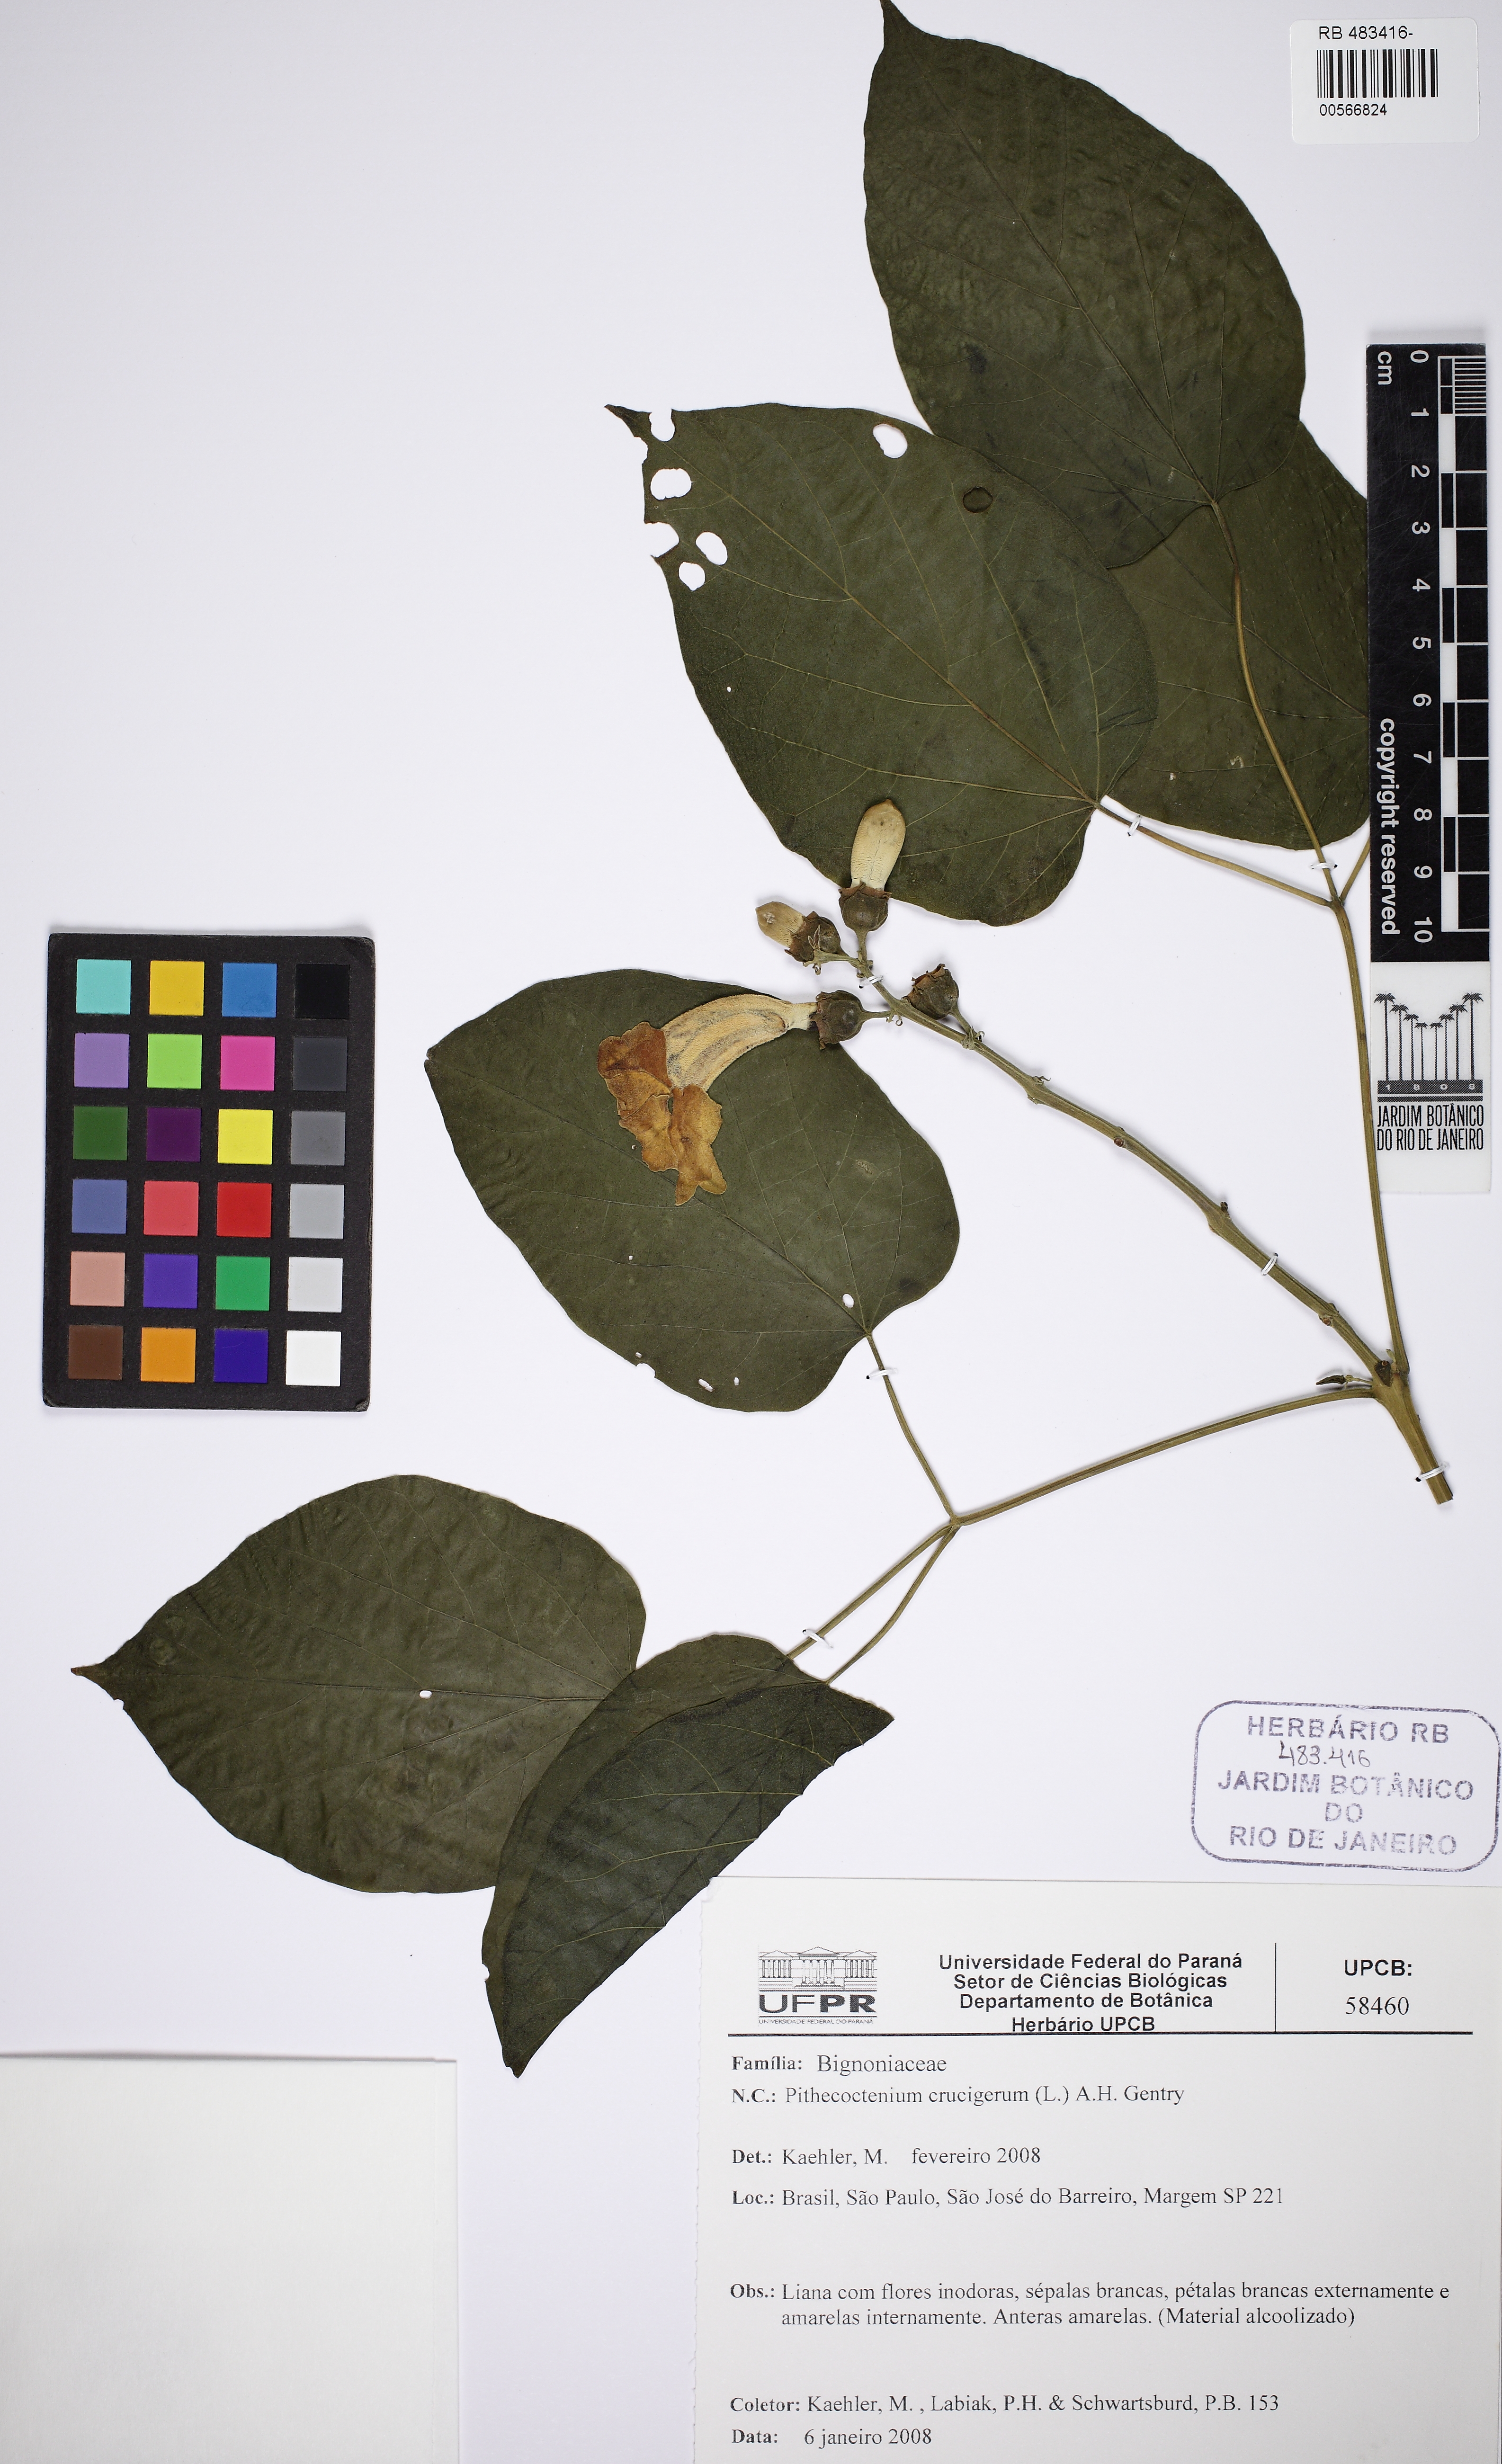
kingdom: Plantae
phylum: Tracheophyta
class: Magnoliopsida
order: Lamiales
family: Bignoniaceae
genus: Amphilophium
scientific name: Amphilophium crucigerum
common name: Monkey comb
